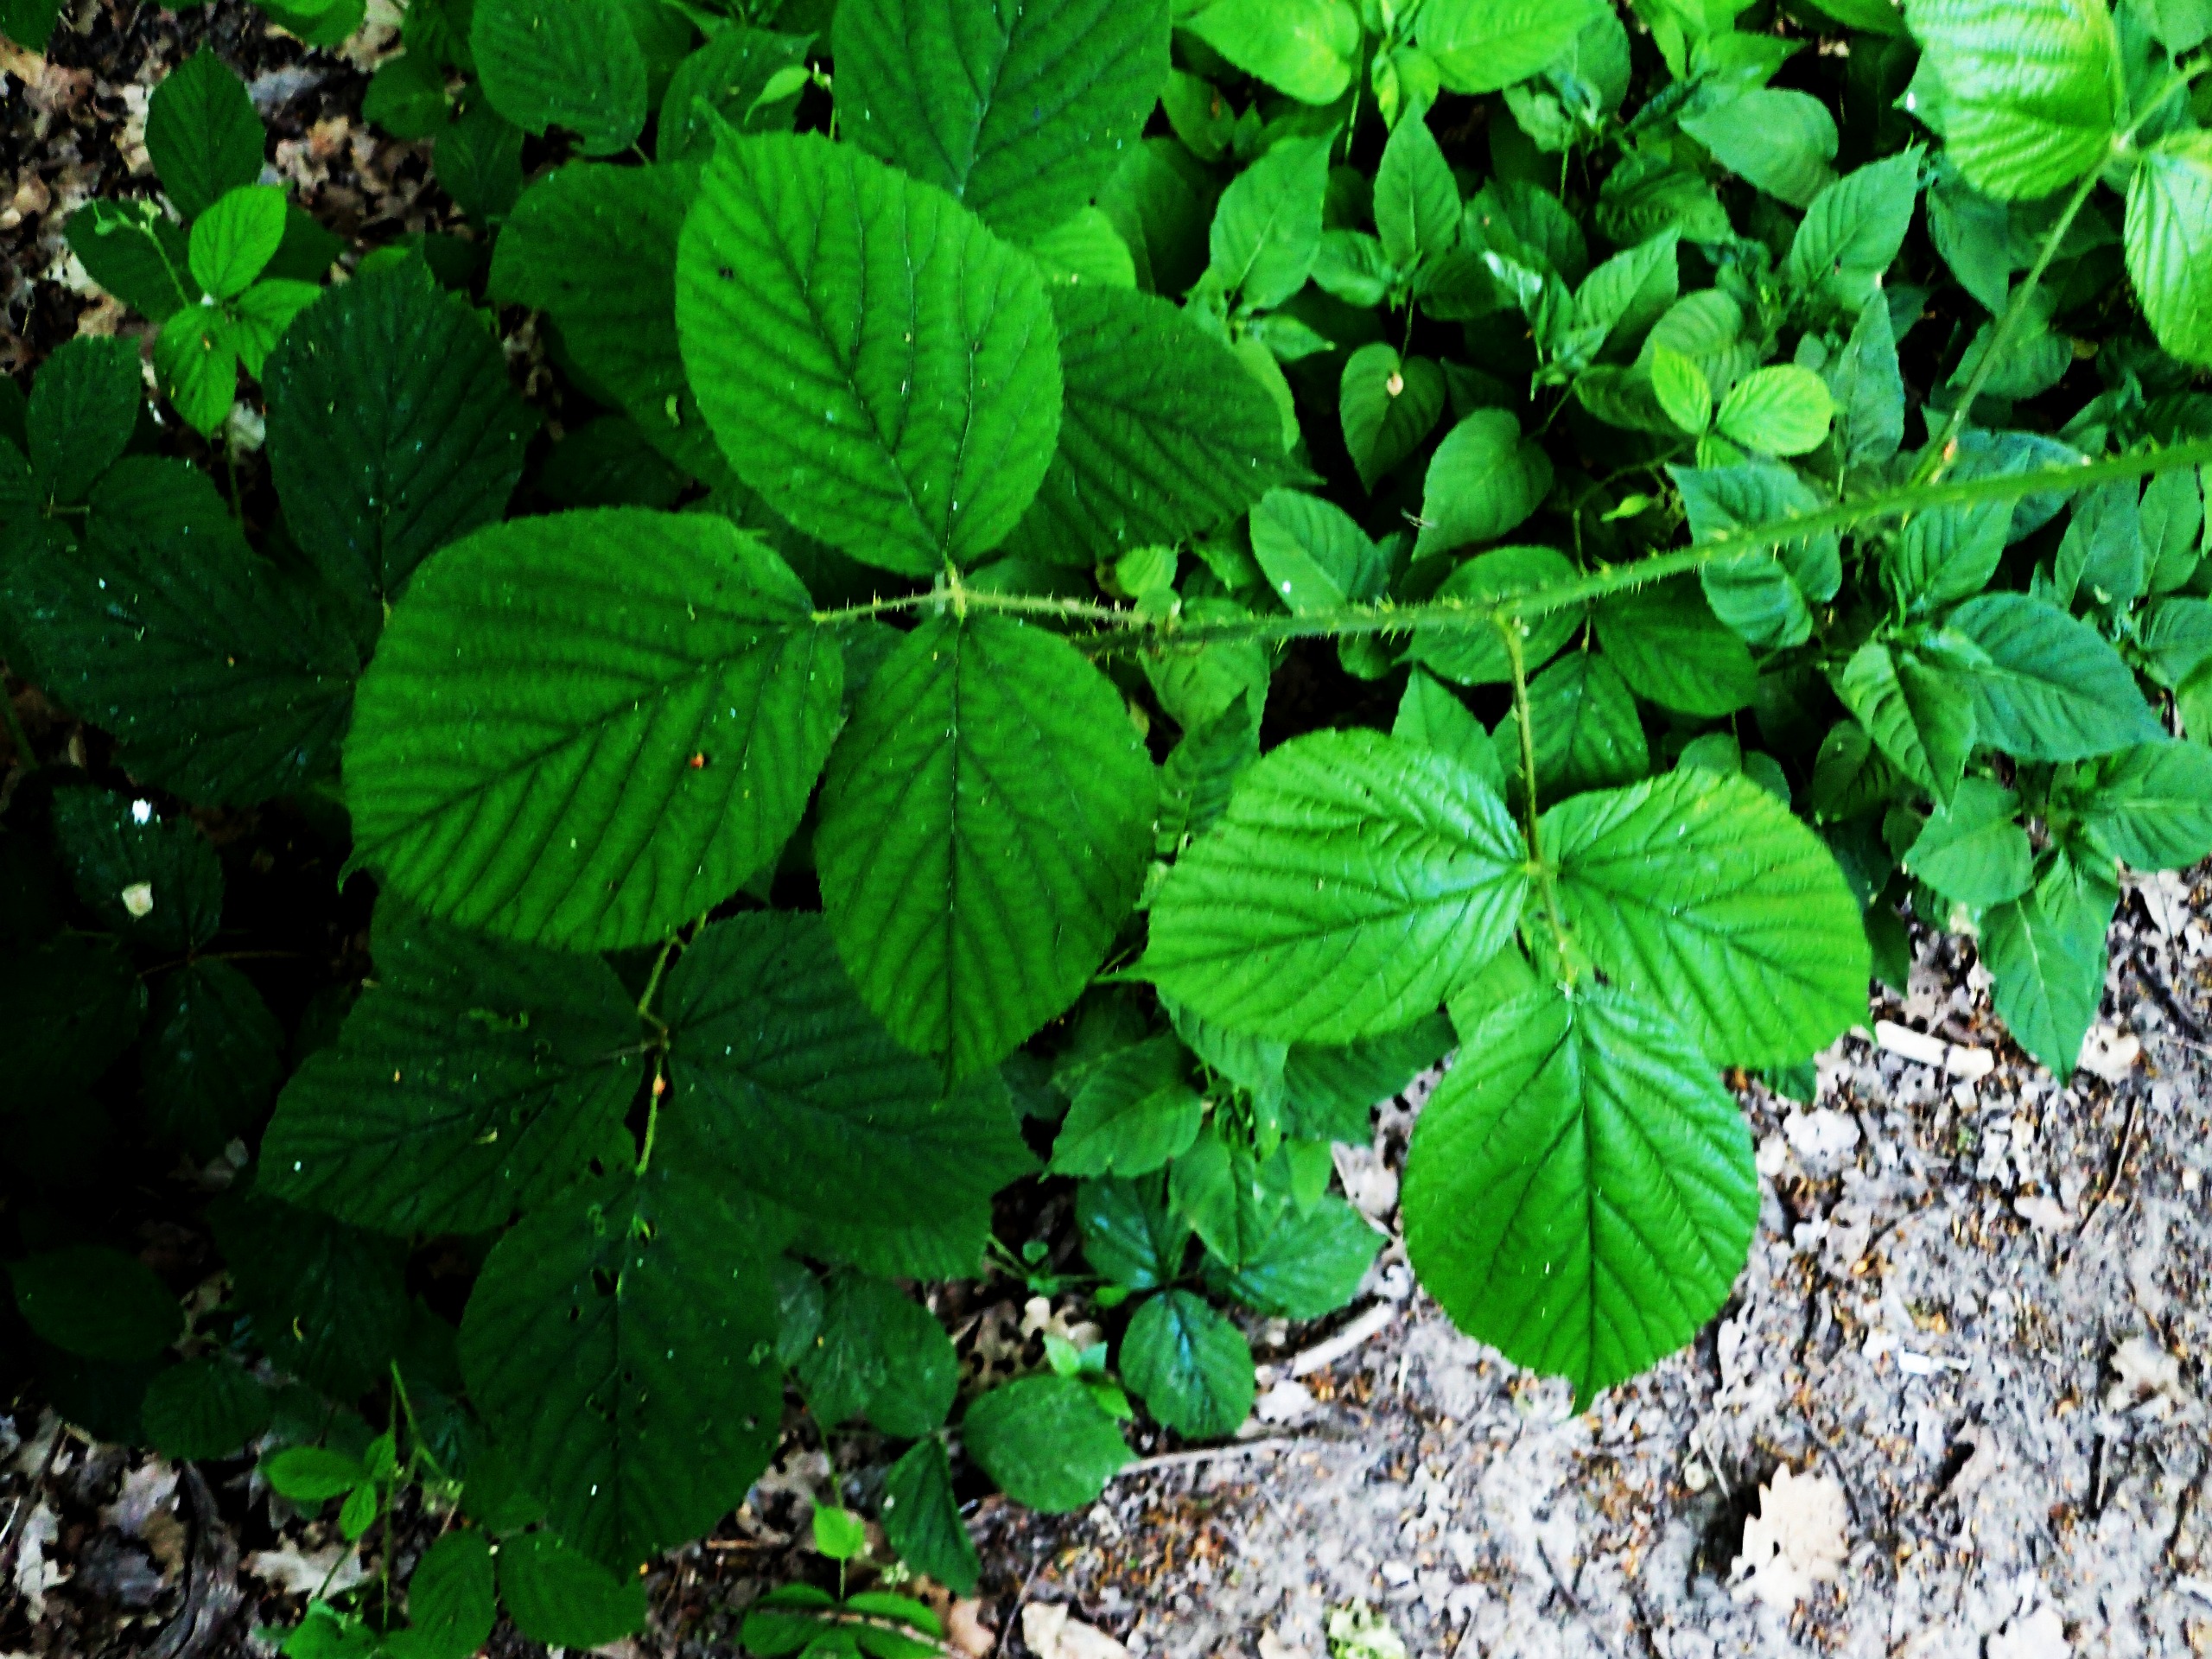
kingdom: Plantae
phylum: Tracheophyta
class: Magnoliopsida
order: Rosales
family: Rosaceae
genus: Rubus
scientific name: Rubus nigricans
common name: Trebladet brombær
